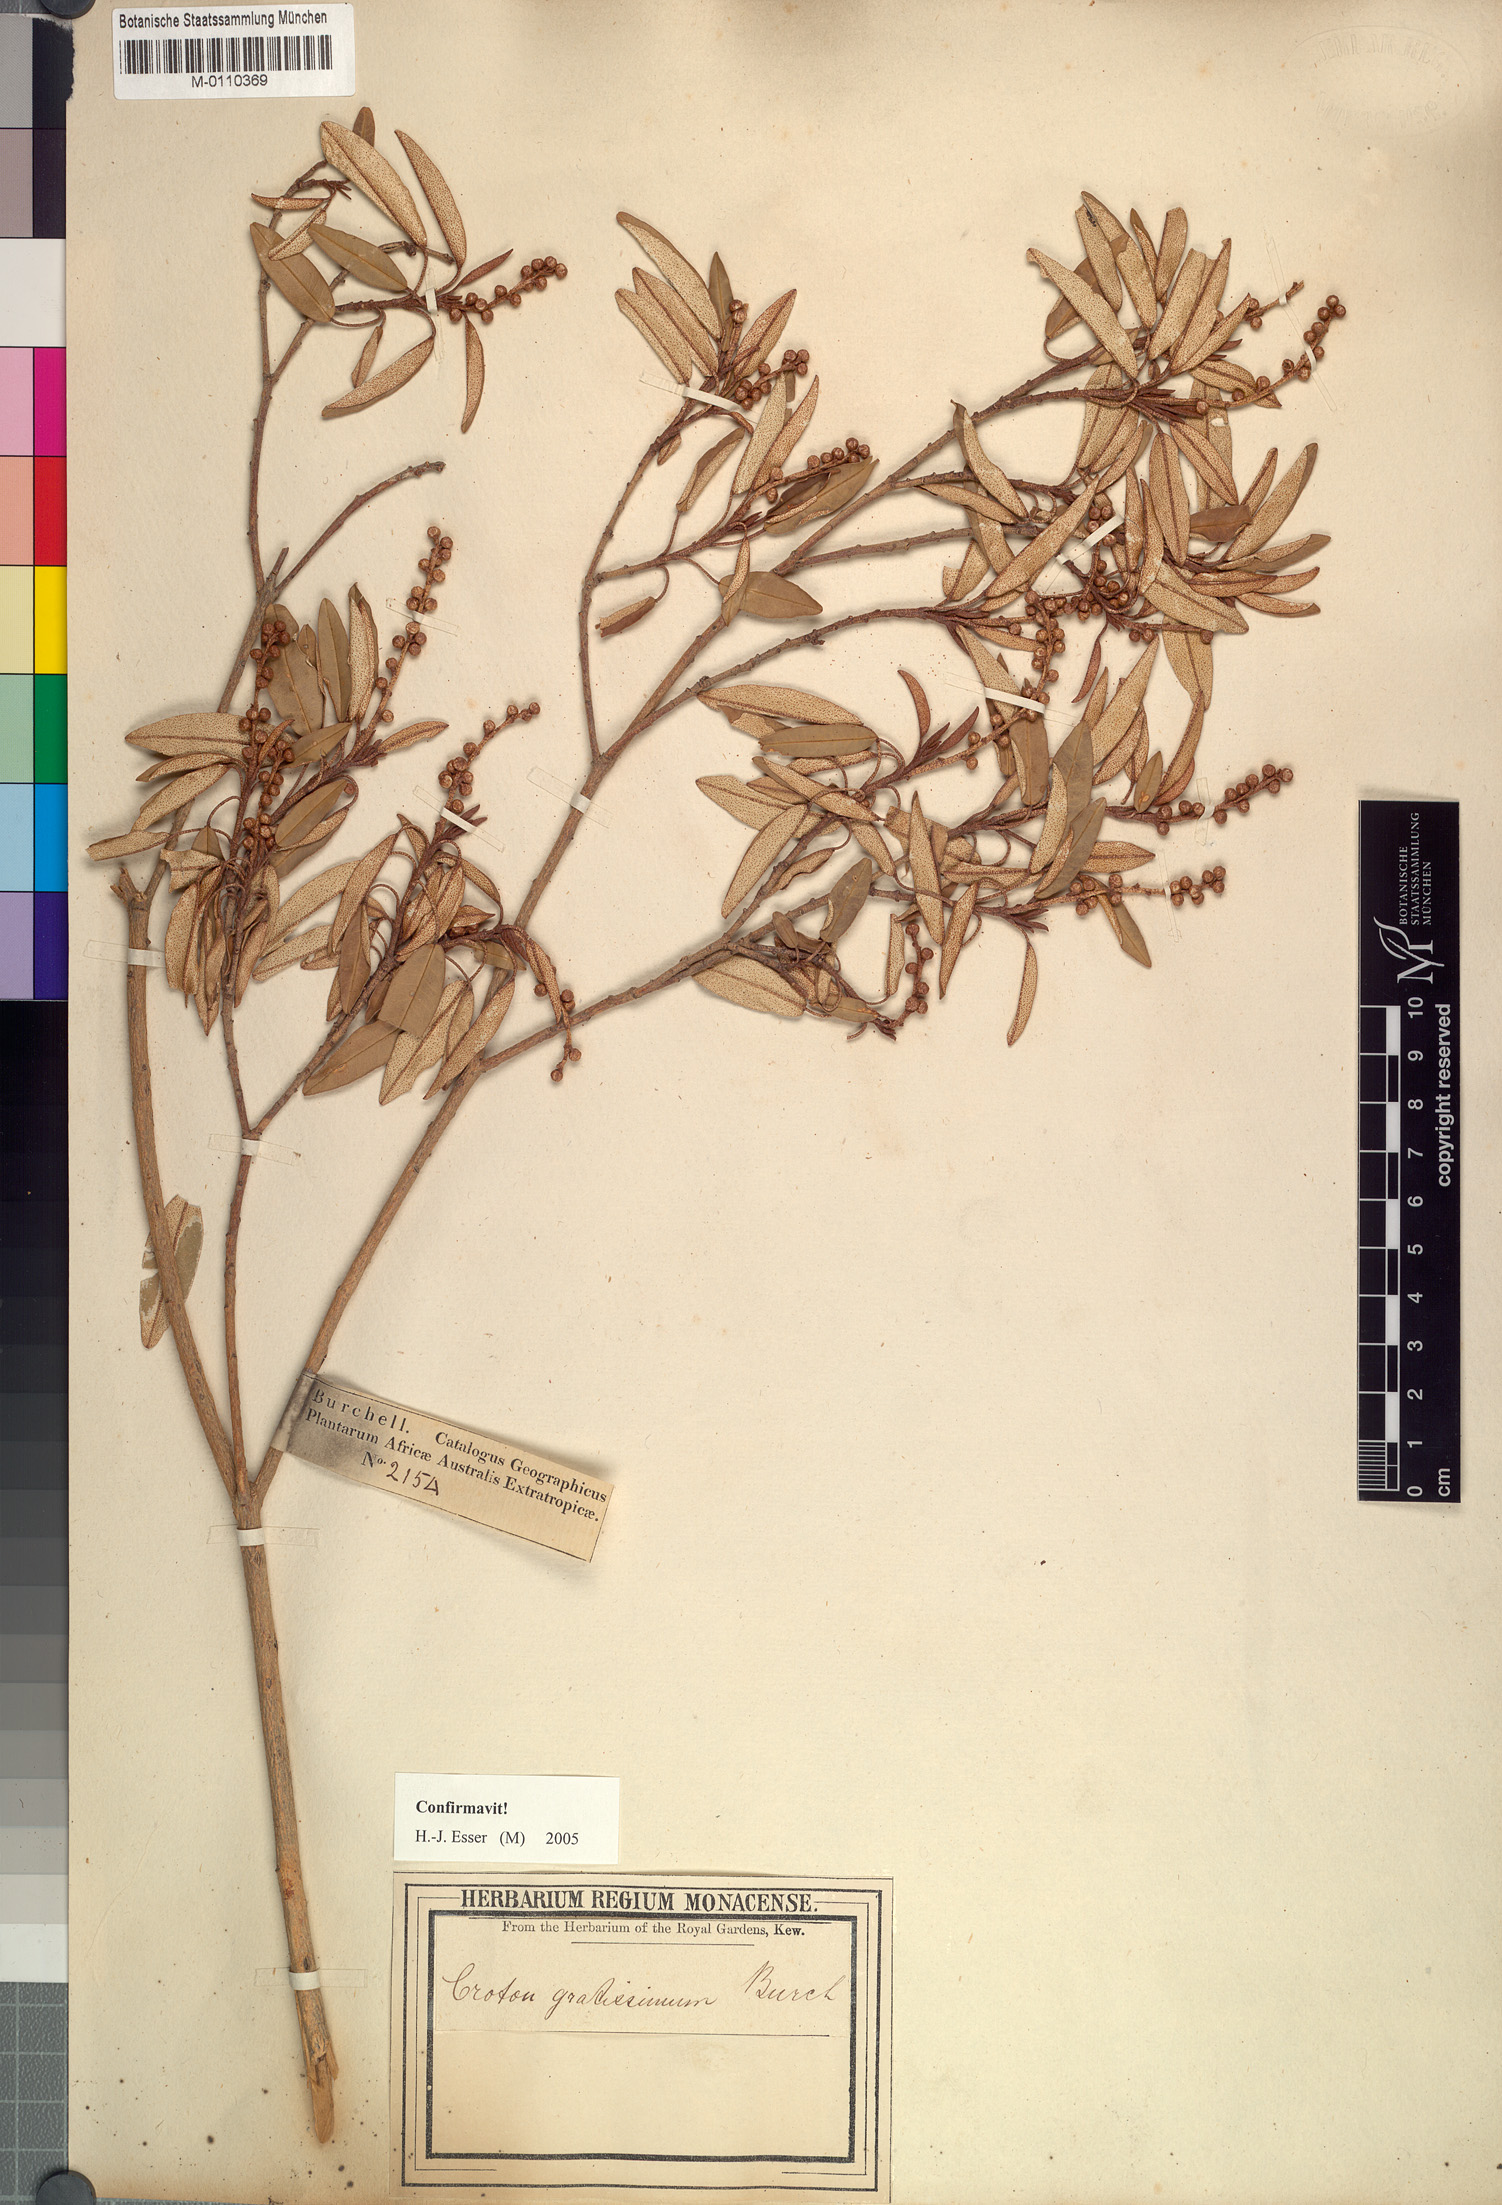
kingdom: Plantae
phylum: Tracheophyta
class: Magnoliopsida
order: Malpighiales
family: Euphorbiaceae
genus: Croton
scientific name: Croton gratissimus
